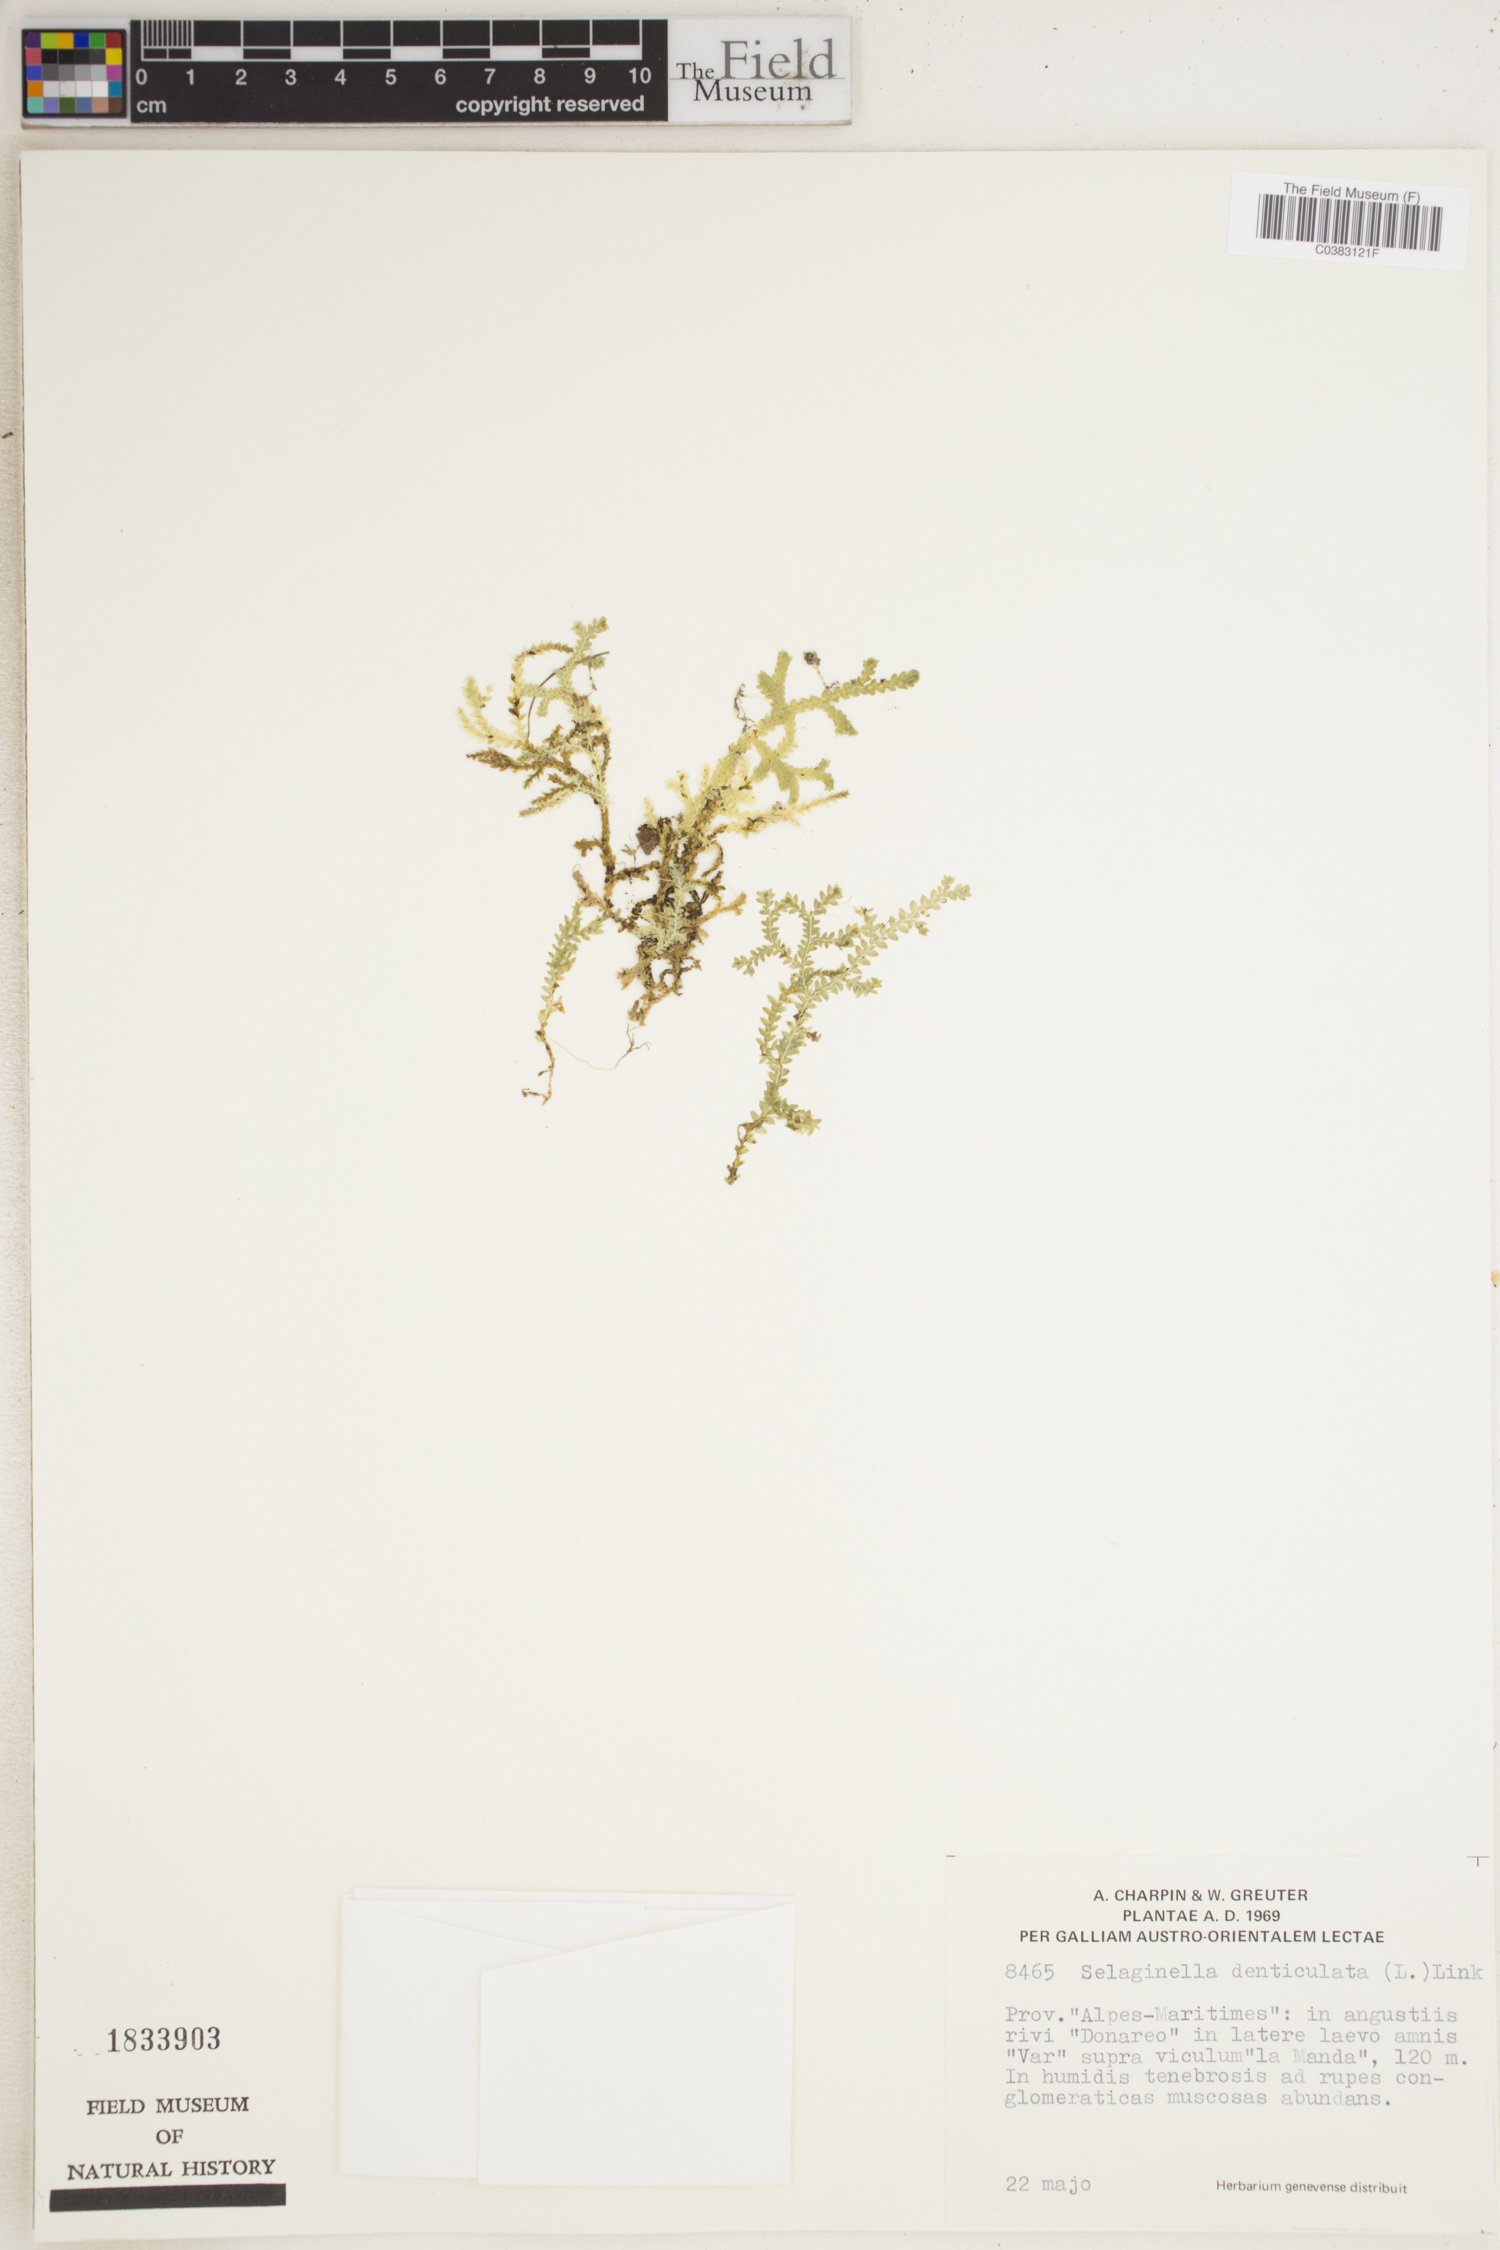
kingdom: Plantae
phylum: Tracheophyta
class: Lycopodiopsida
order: Selaginellales
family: Selaginellaceae
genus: Selaginella
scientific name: Selaginella denticulata
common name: Toothed-leaved clubmoss
